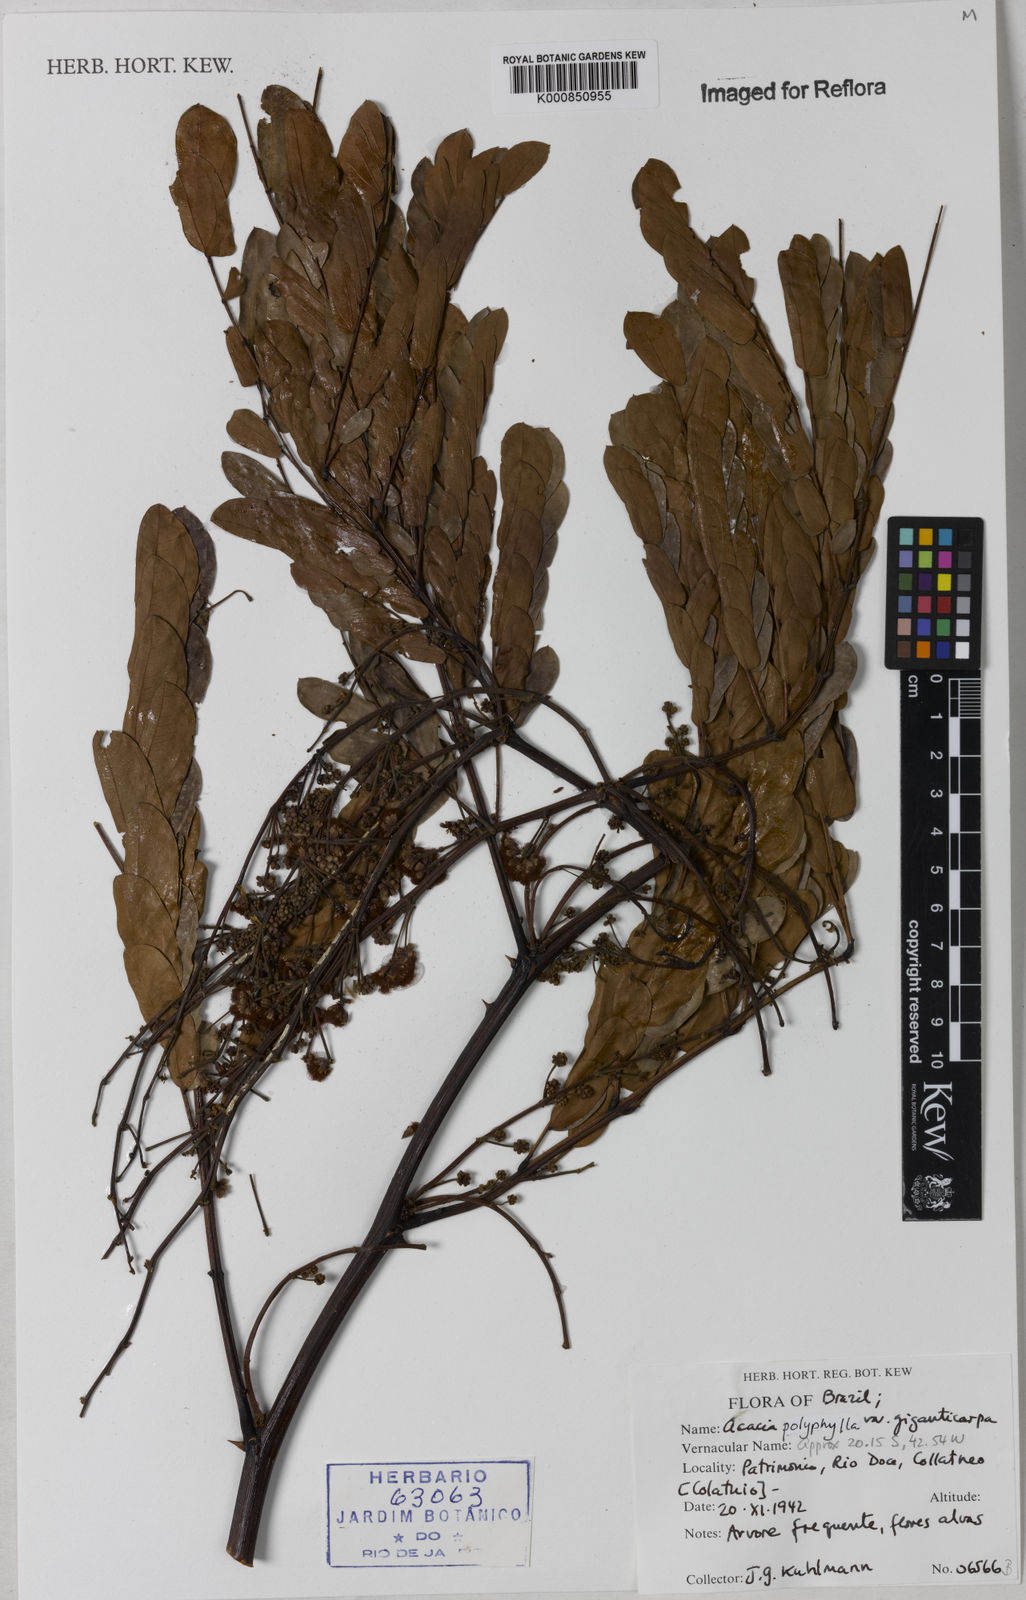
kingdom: Plantae
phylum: Tracheophyta
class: Magnoliopsida
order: Fabales
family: Fabaceae
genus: Senegalia
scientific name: Senegalia giganticarpa
